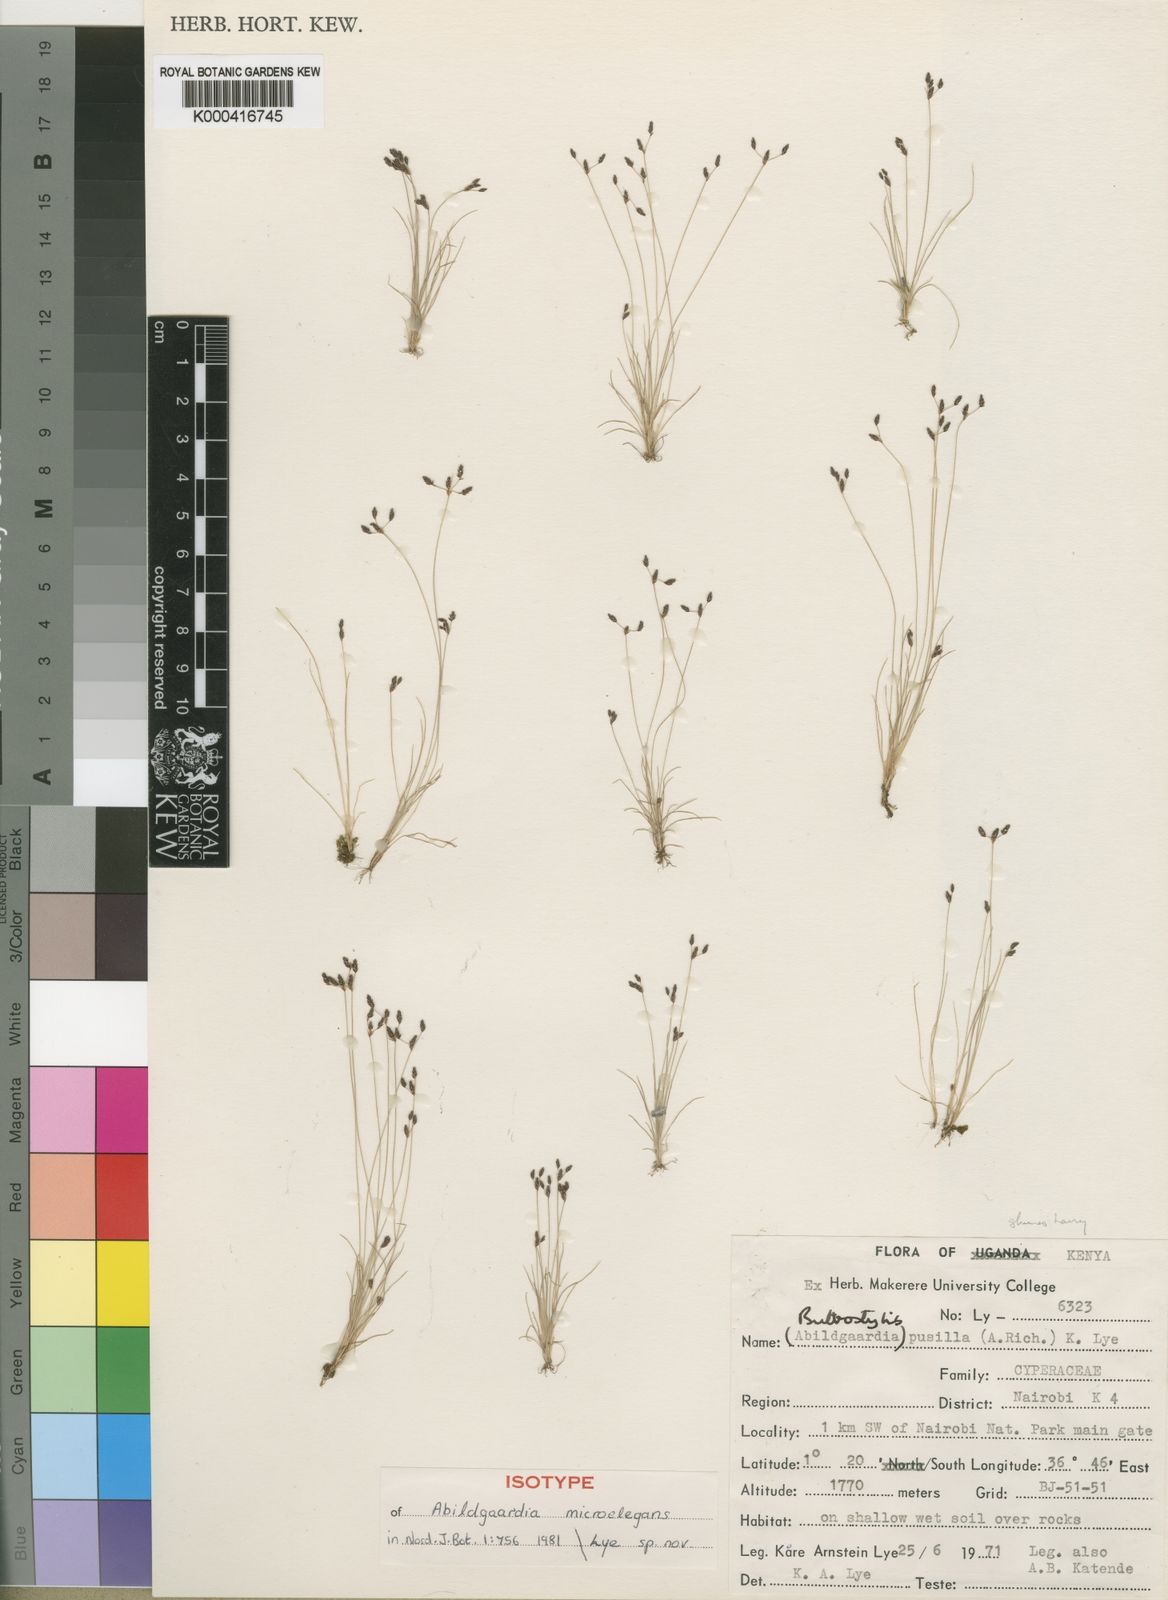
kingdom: Plantae
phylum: Tracheophyta
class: Liliopsida
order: Poales
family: Cyperaceae
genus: Bulbostylis
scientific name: Bulbostylis microelegans
